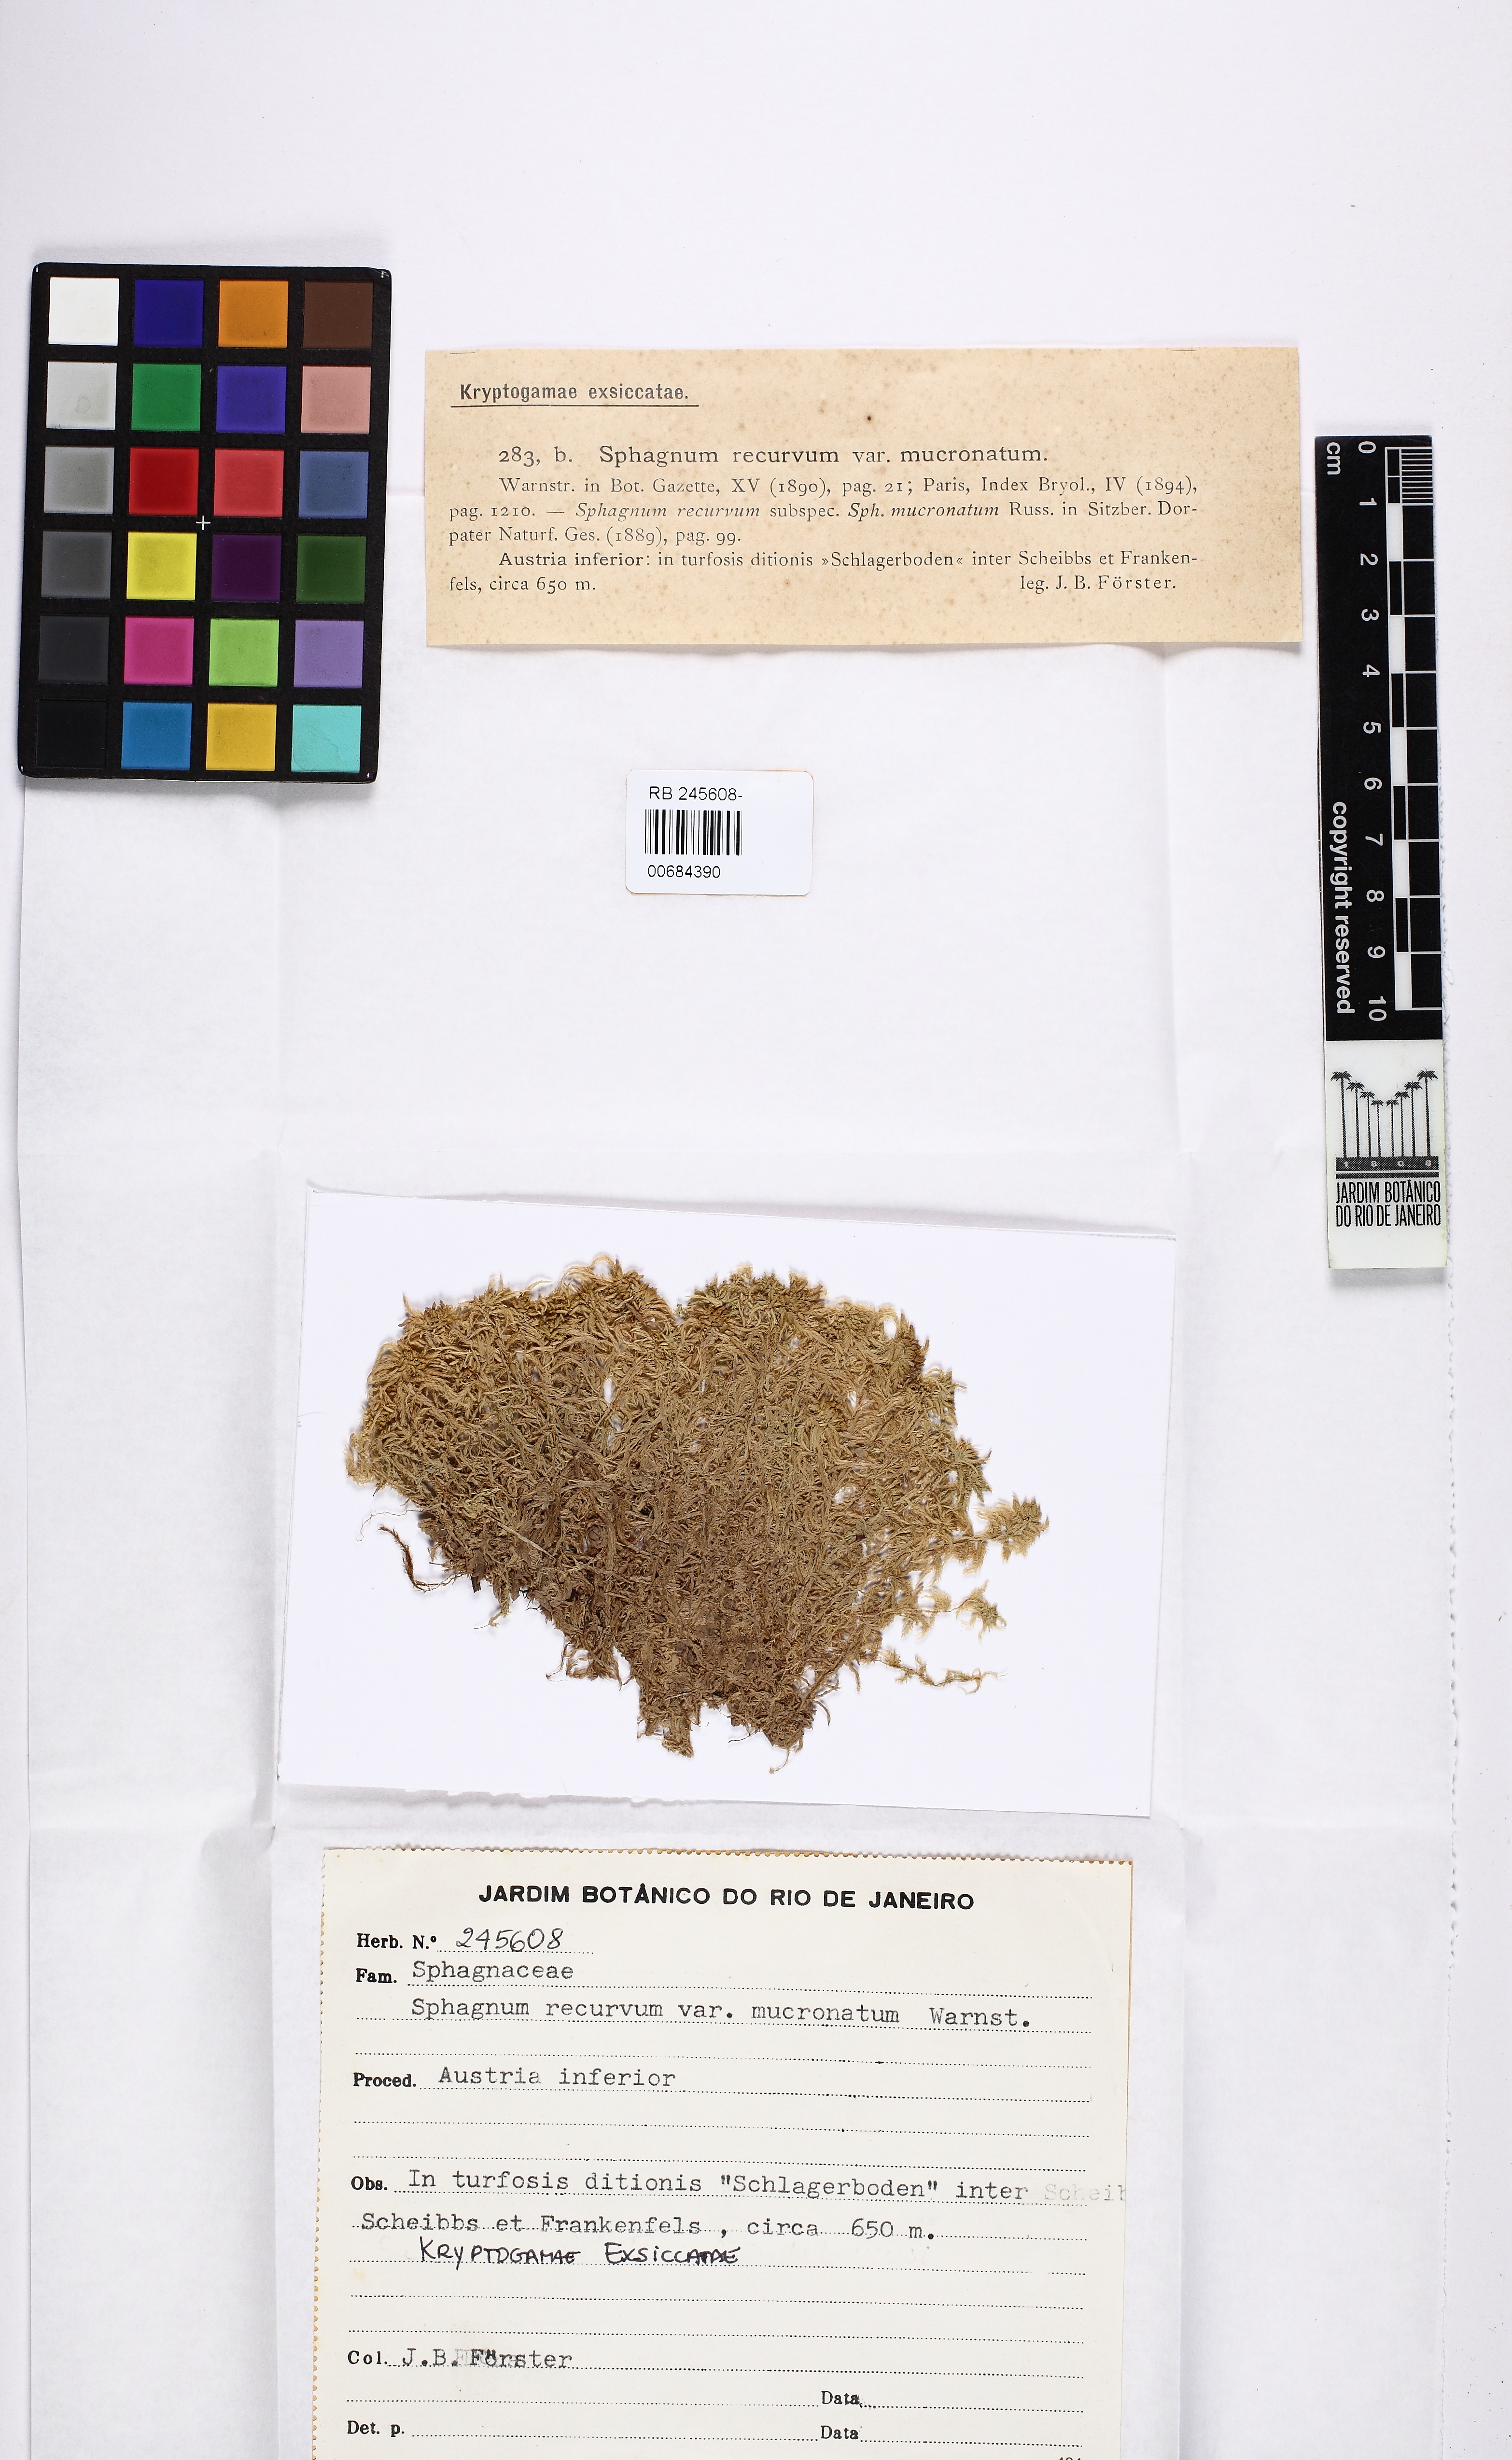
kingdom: Plantae
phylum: Bryophyta
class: Sphagnopsida
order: Sphagnales
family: Sphagnaceae
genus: Sphagnum
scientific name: Sphagnum fallax
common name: Flat-top peat moss
